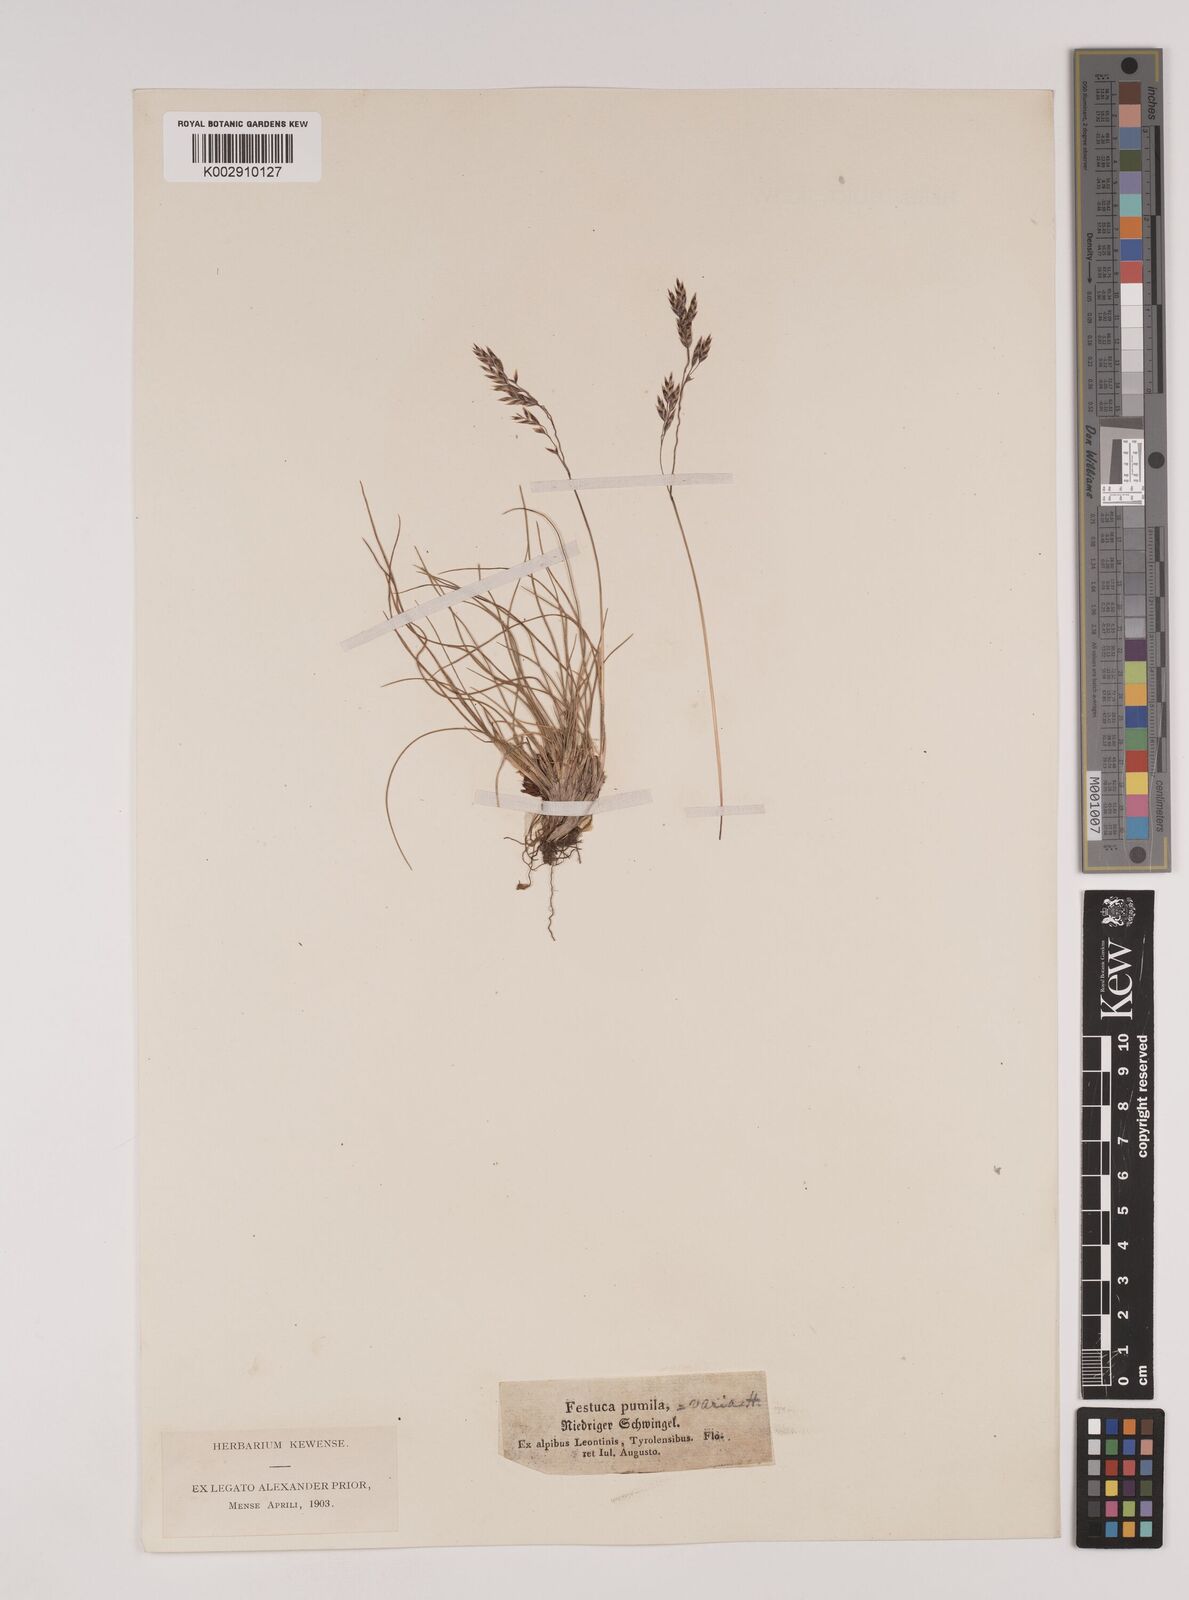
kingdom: Plantae
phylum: Tracheophyta
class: Liliopsida
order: Poales
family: Poaceae
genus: Festuca
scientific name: Festuca
